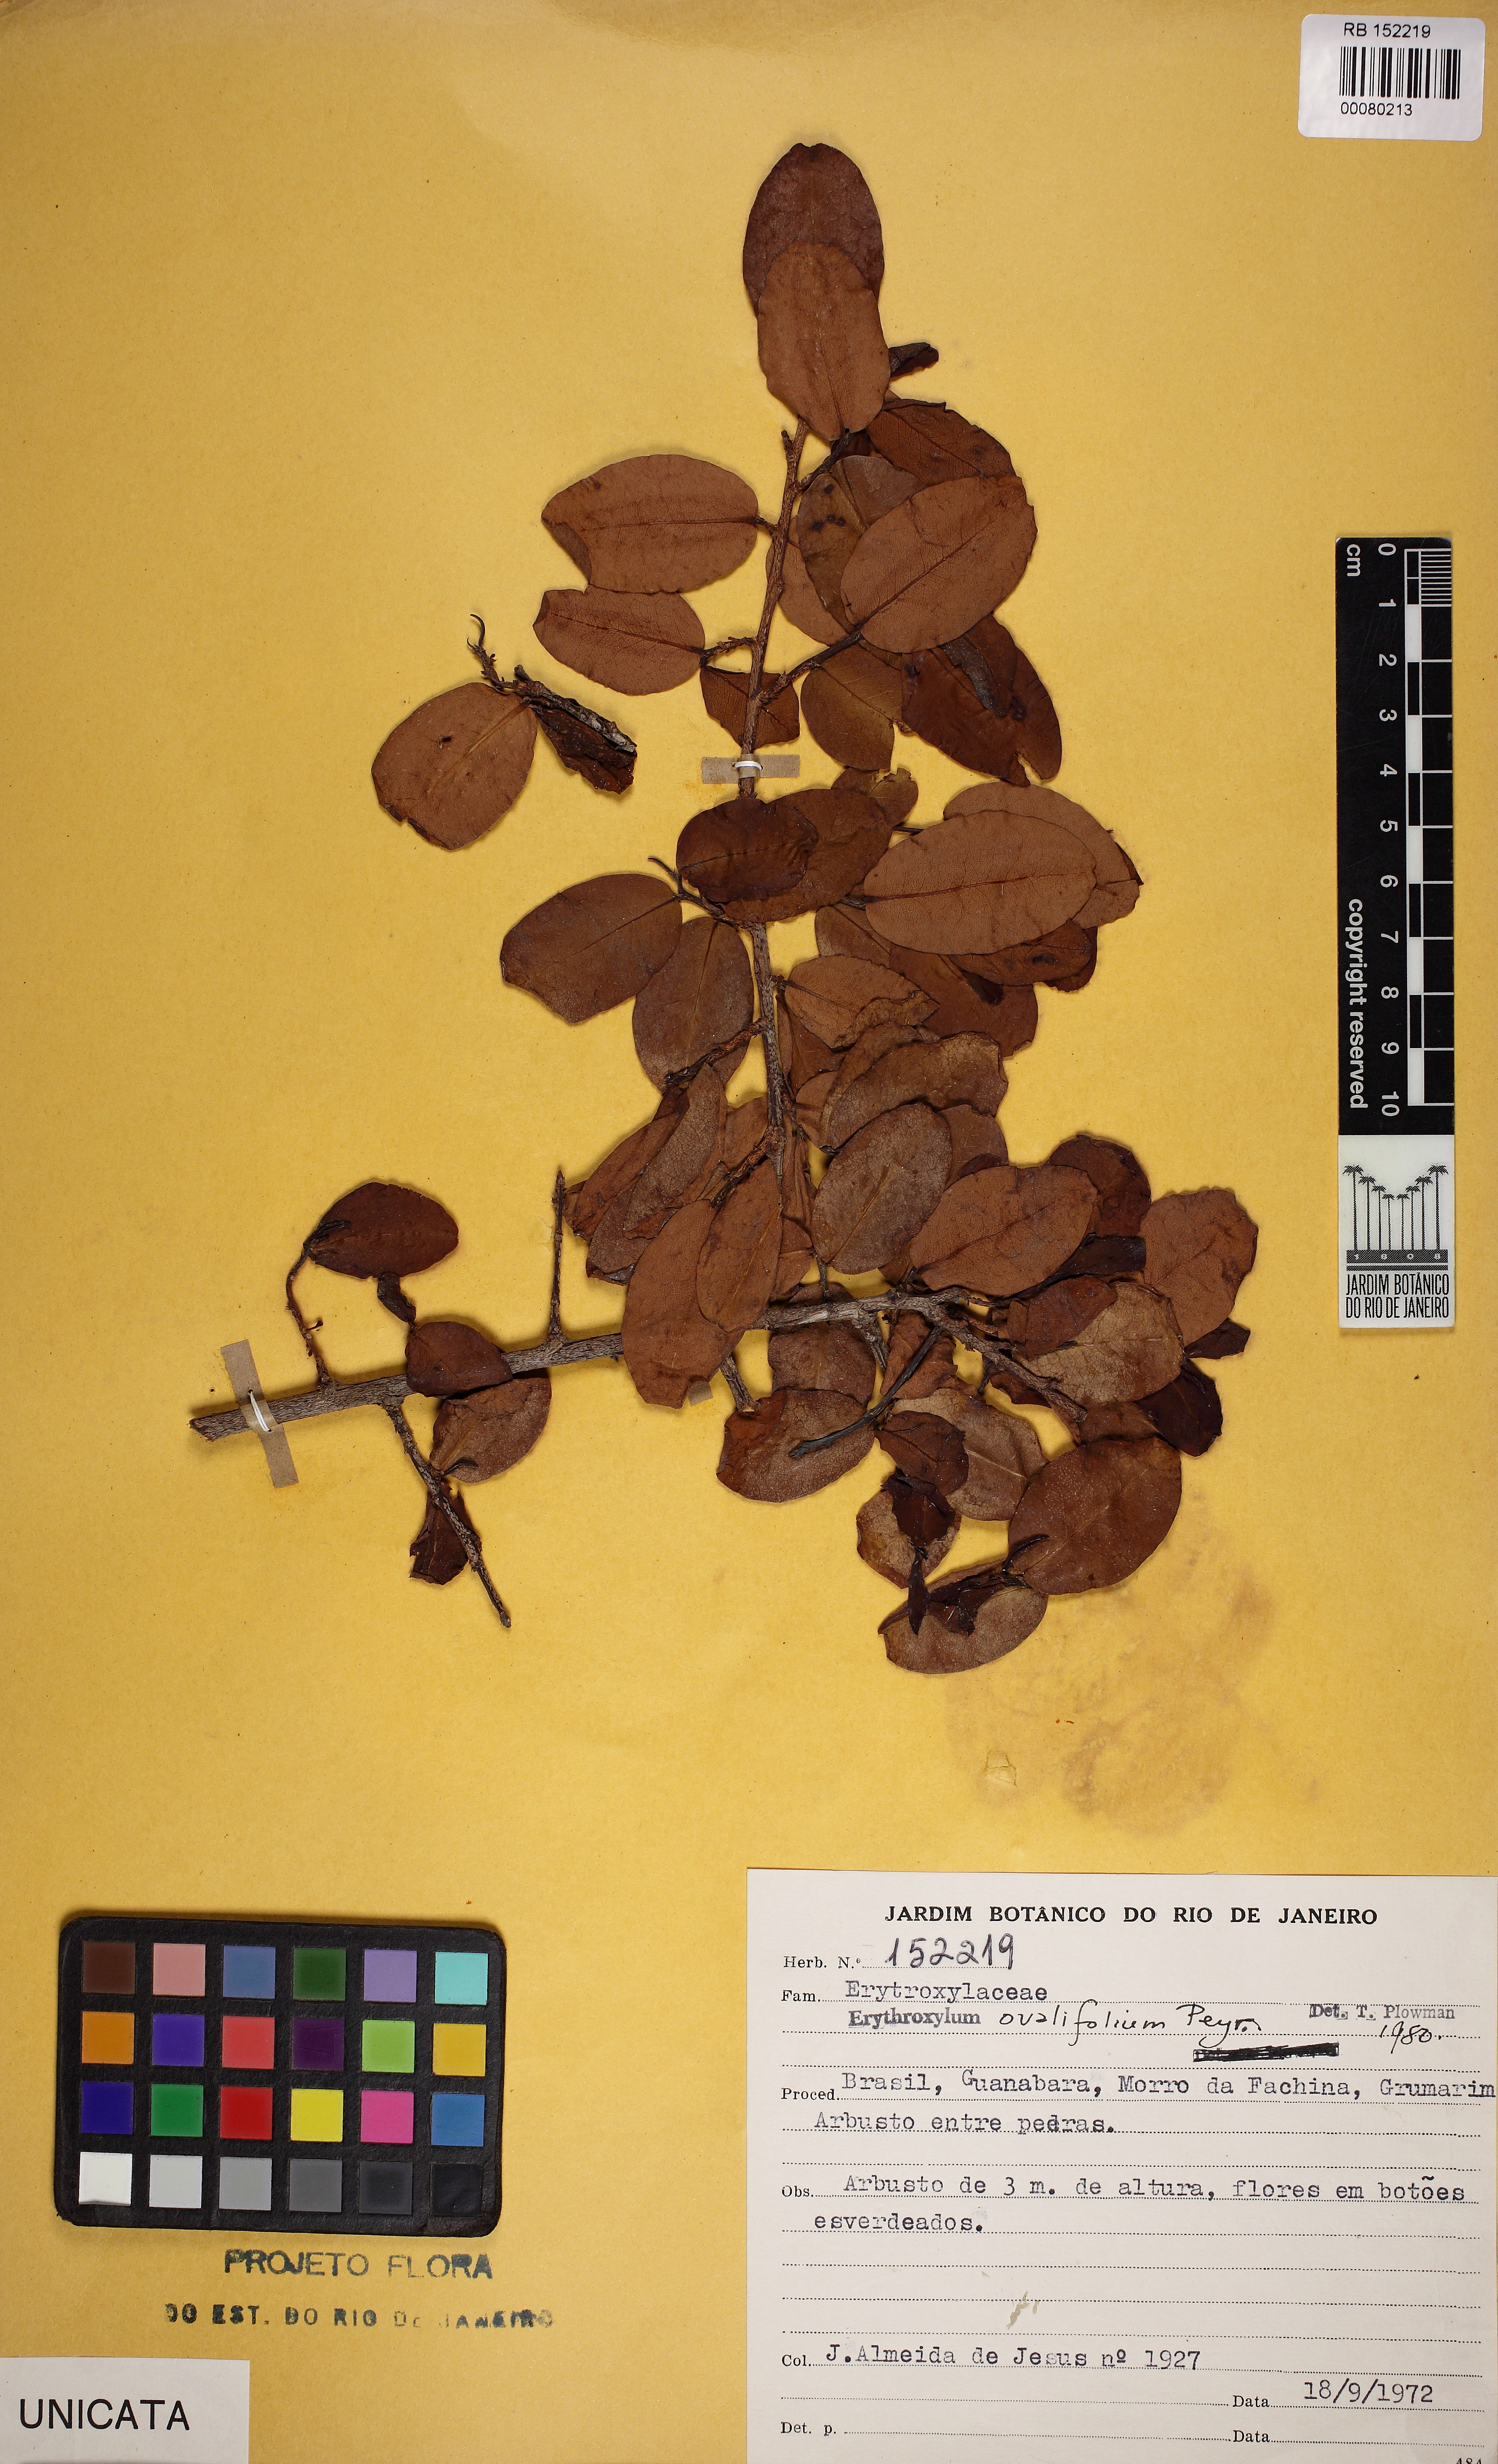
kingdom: Plantae
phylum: Tracheophyta
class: Magnoliopsida
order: Malpighiales
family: Erythroxylaceae
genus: Erythroxylum
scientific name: Erythroxylum ovalifolium
